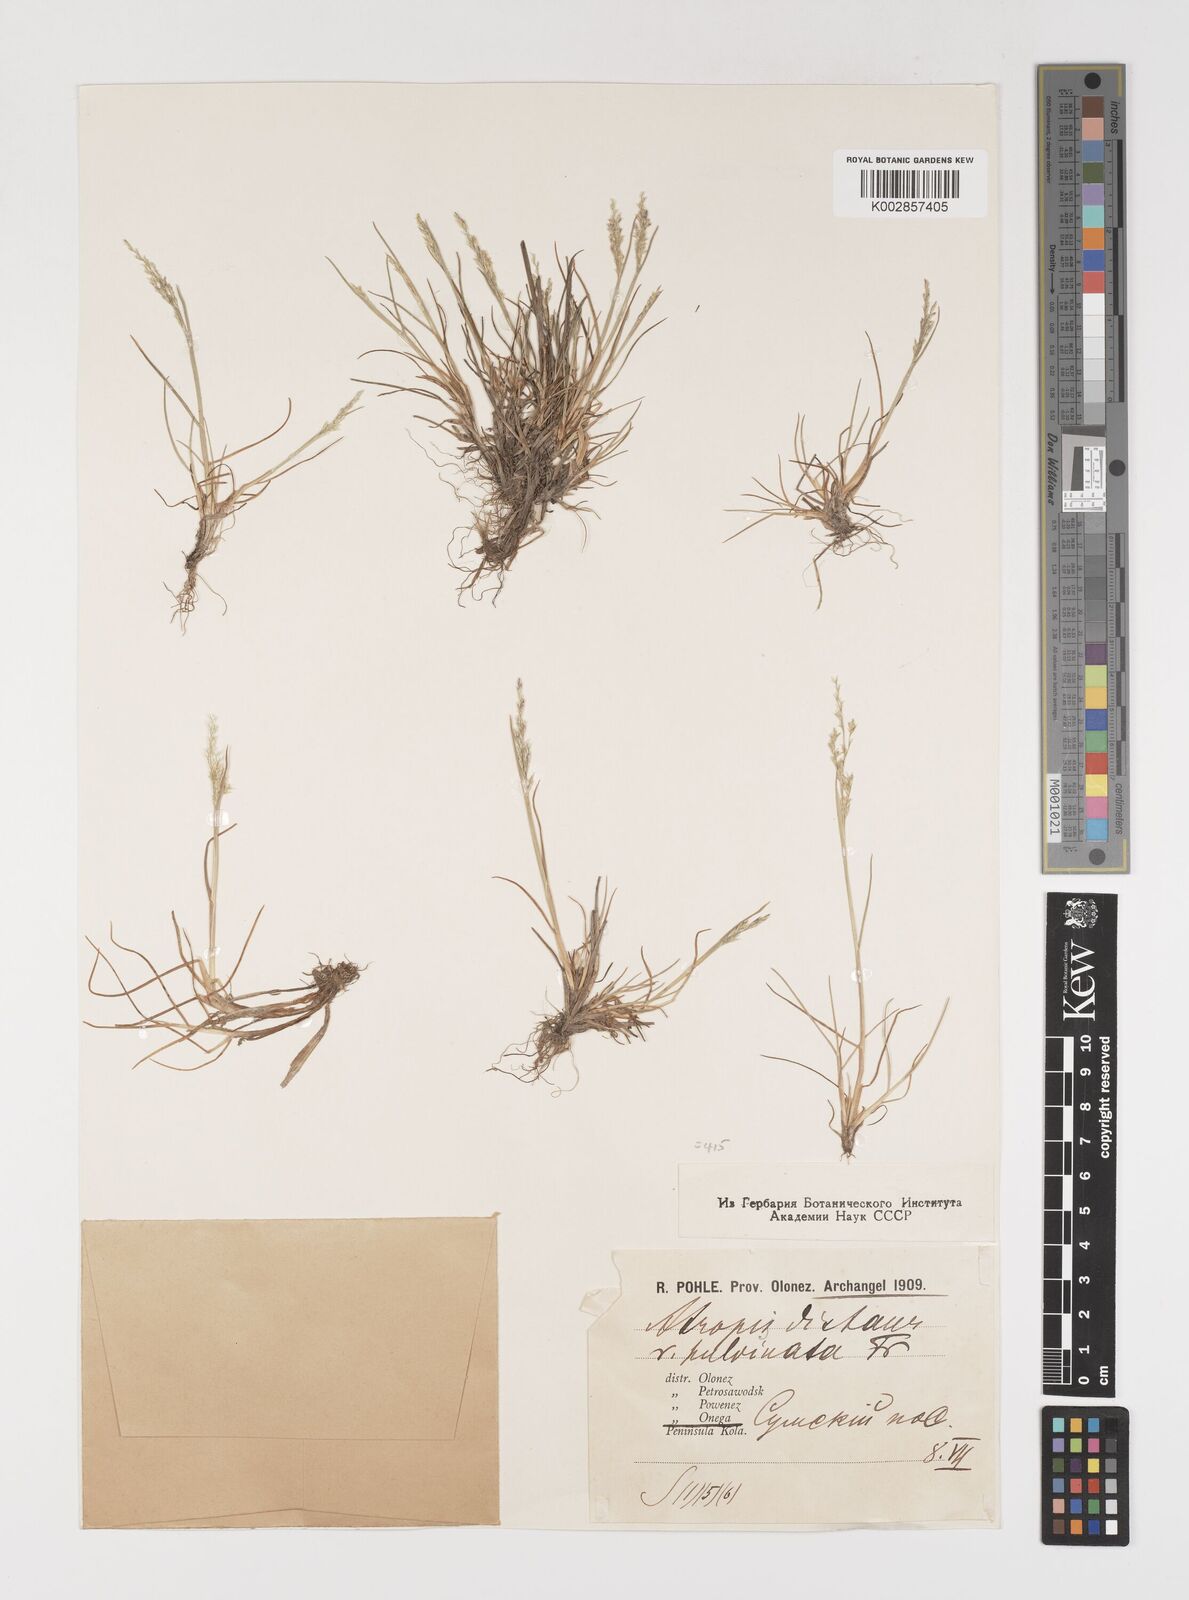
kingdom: Plantae
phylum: Tracheophyta
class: Liliopsida
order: Poales
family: Poaceae
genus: Puccinellia
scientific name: Puccinellia distans
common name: Weeping alkaligrass
